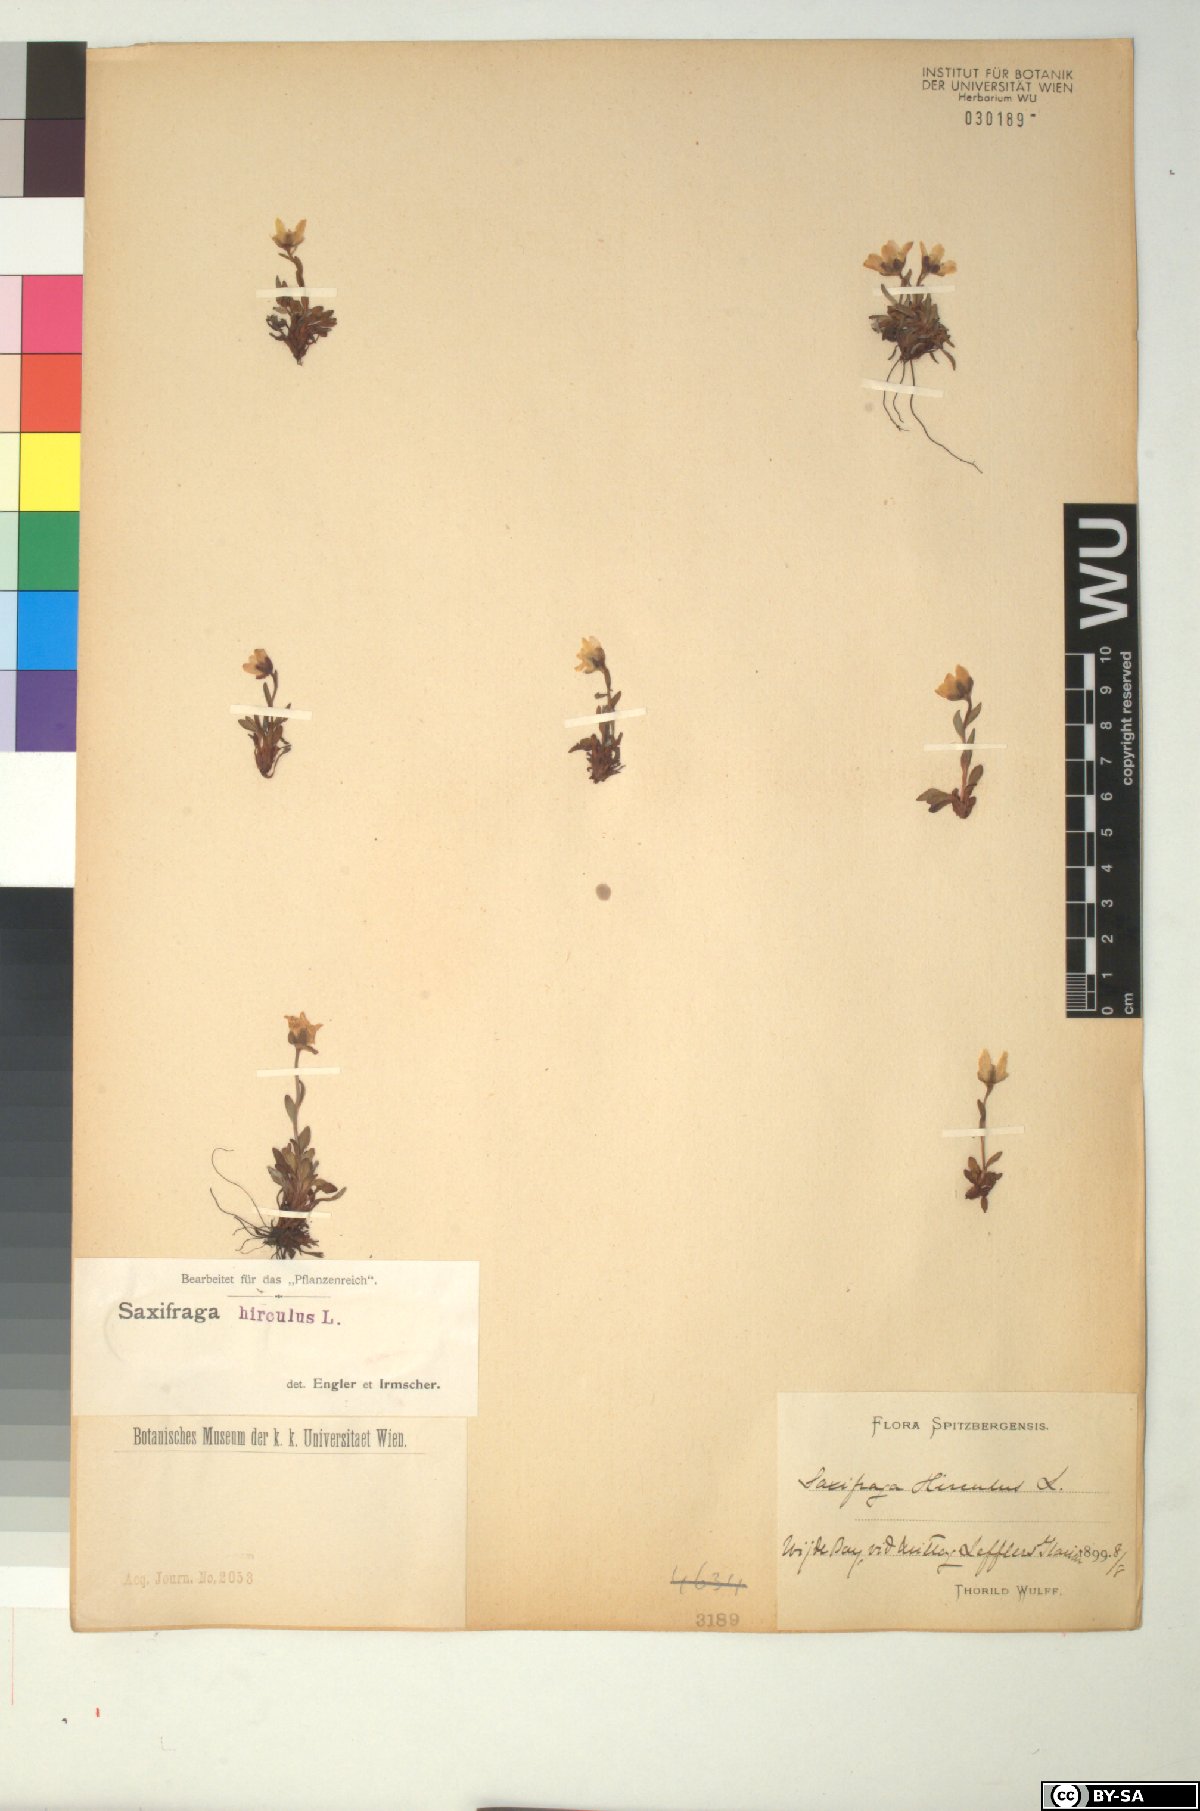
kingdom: Plantae
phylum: Tracheophyta
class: Magnoliopsida
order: Saxifragales
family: Saxifragaceae
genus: Saxifraga
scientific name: Saxifraga hirculus
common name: Yellow marsh saxifrage
